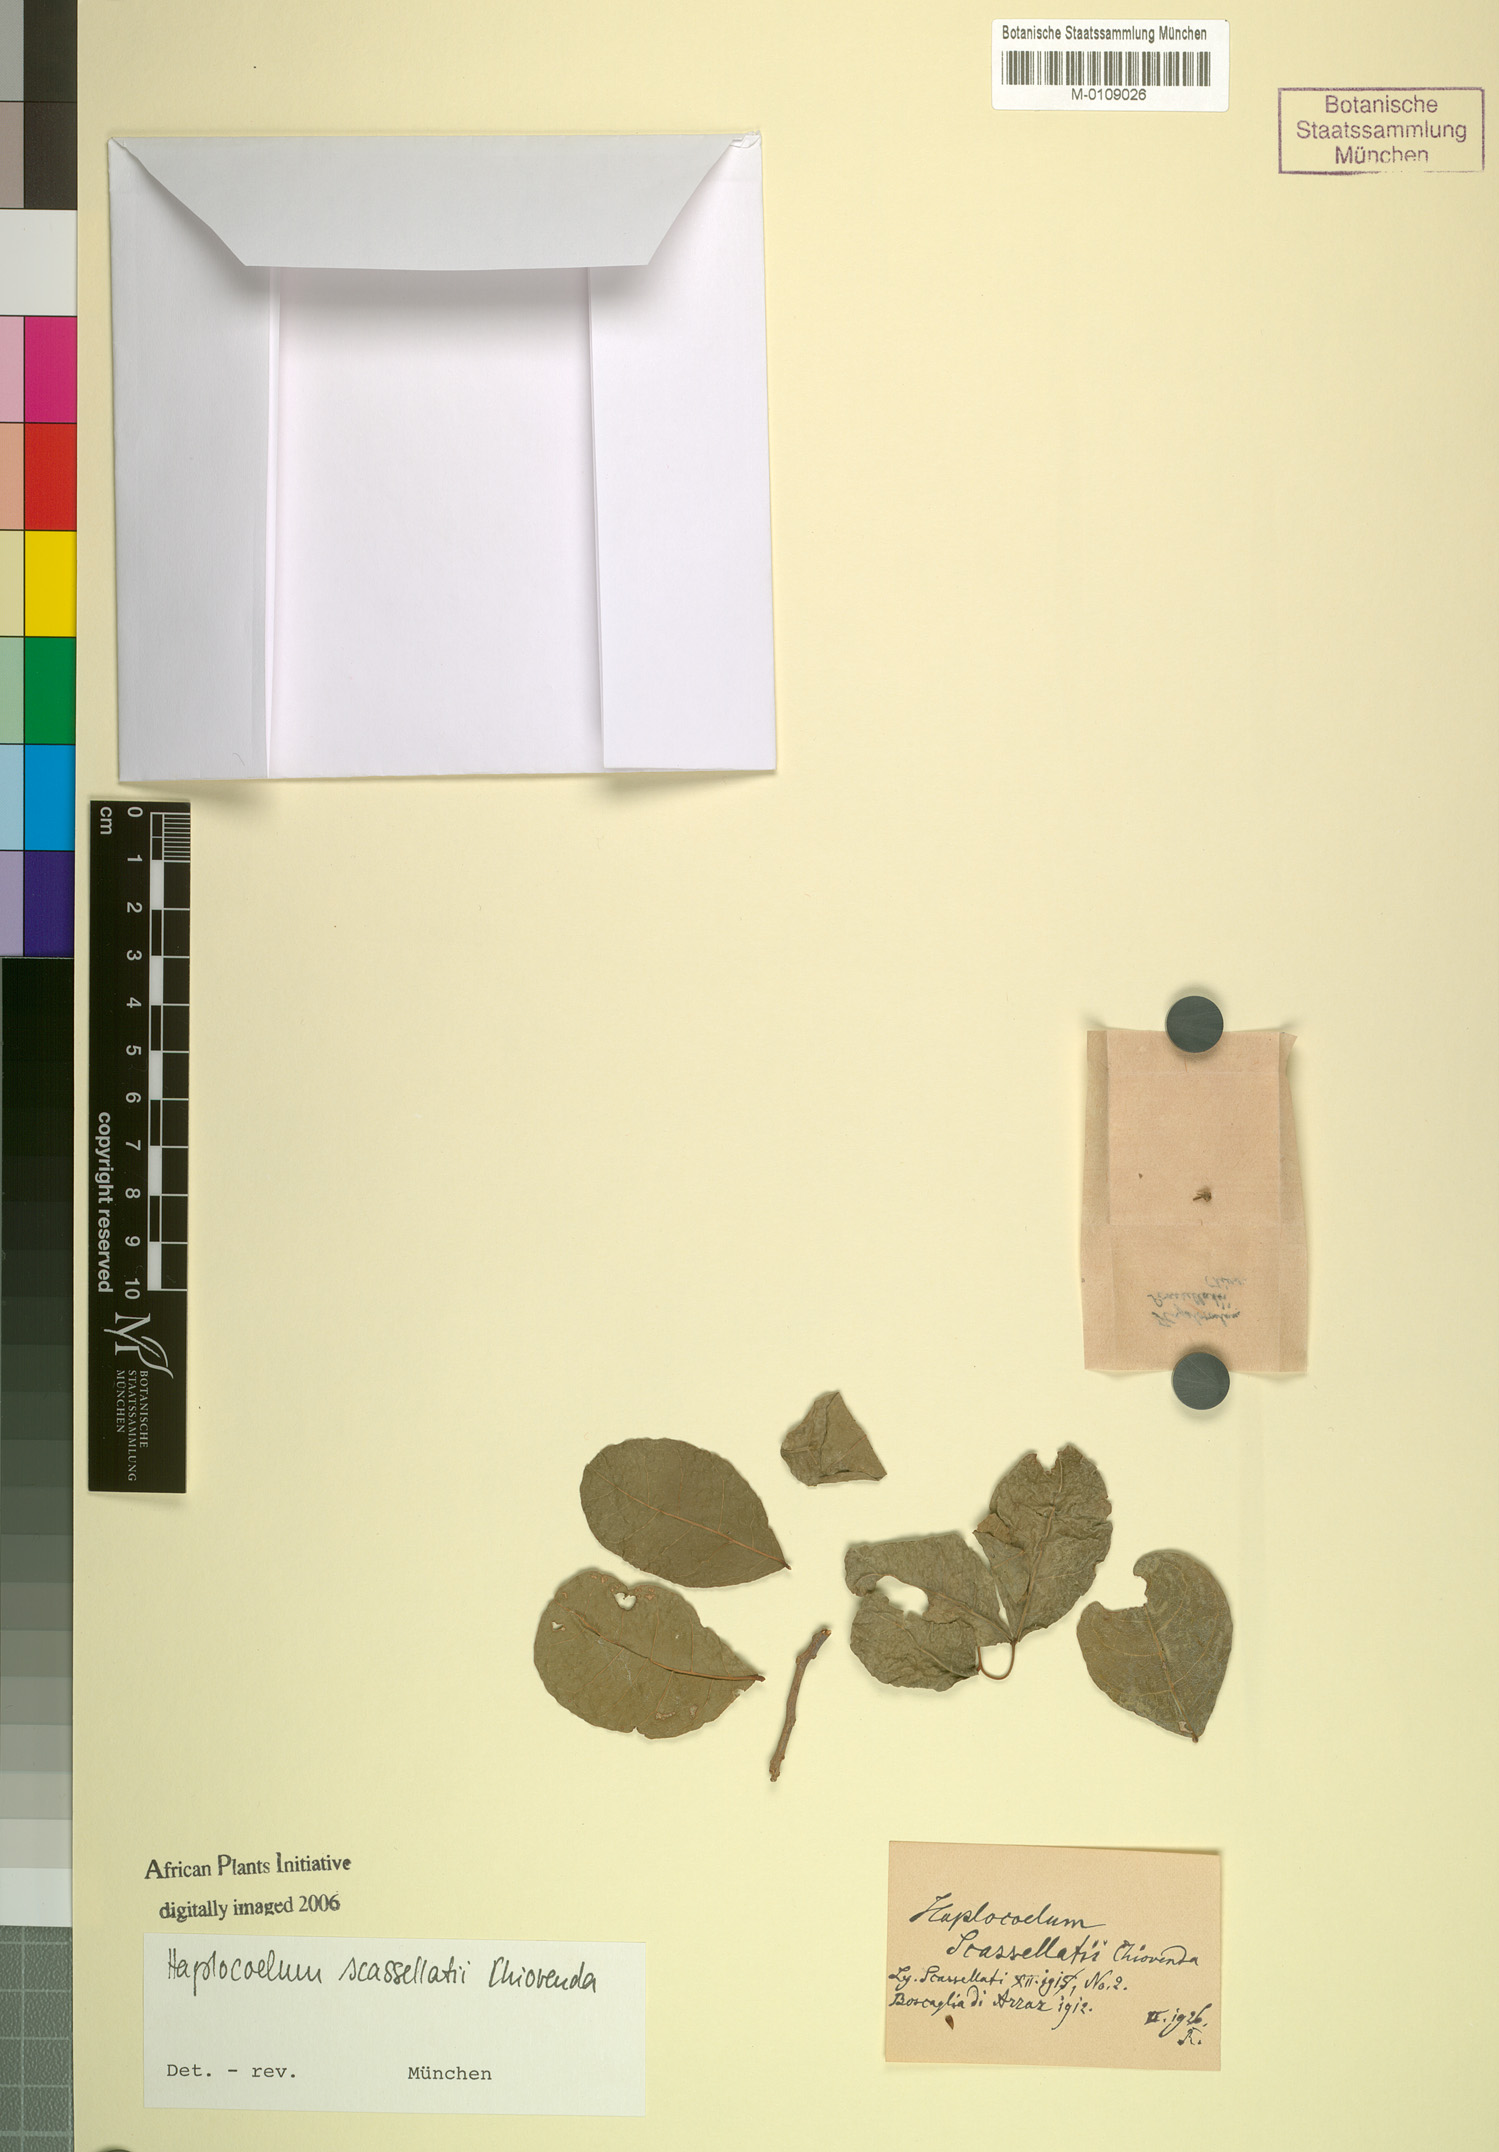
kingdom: Plantae
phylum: Tracheophyta
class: Magnoliopsida
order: Sapindales
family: Sapindaceae
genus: Lecaniodiscus
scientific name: Lecaniodiscus fraxinifolius
